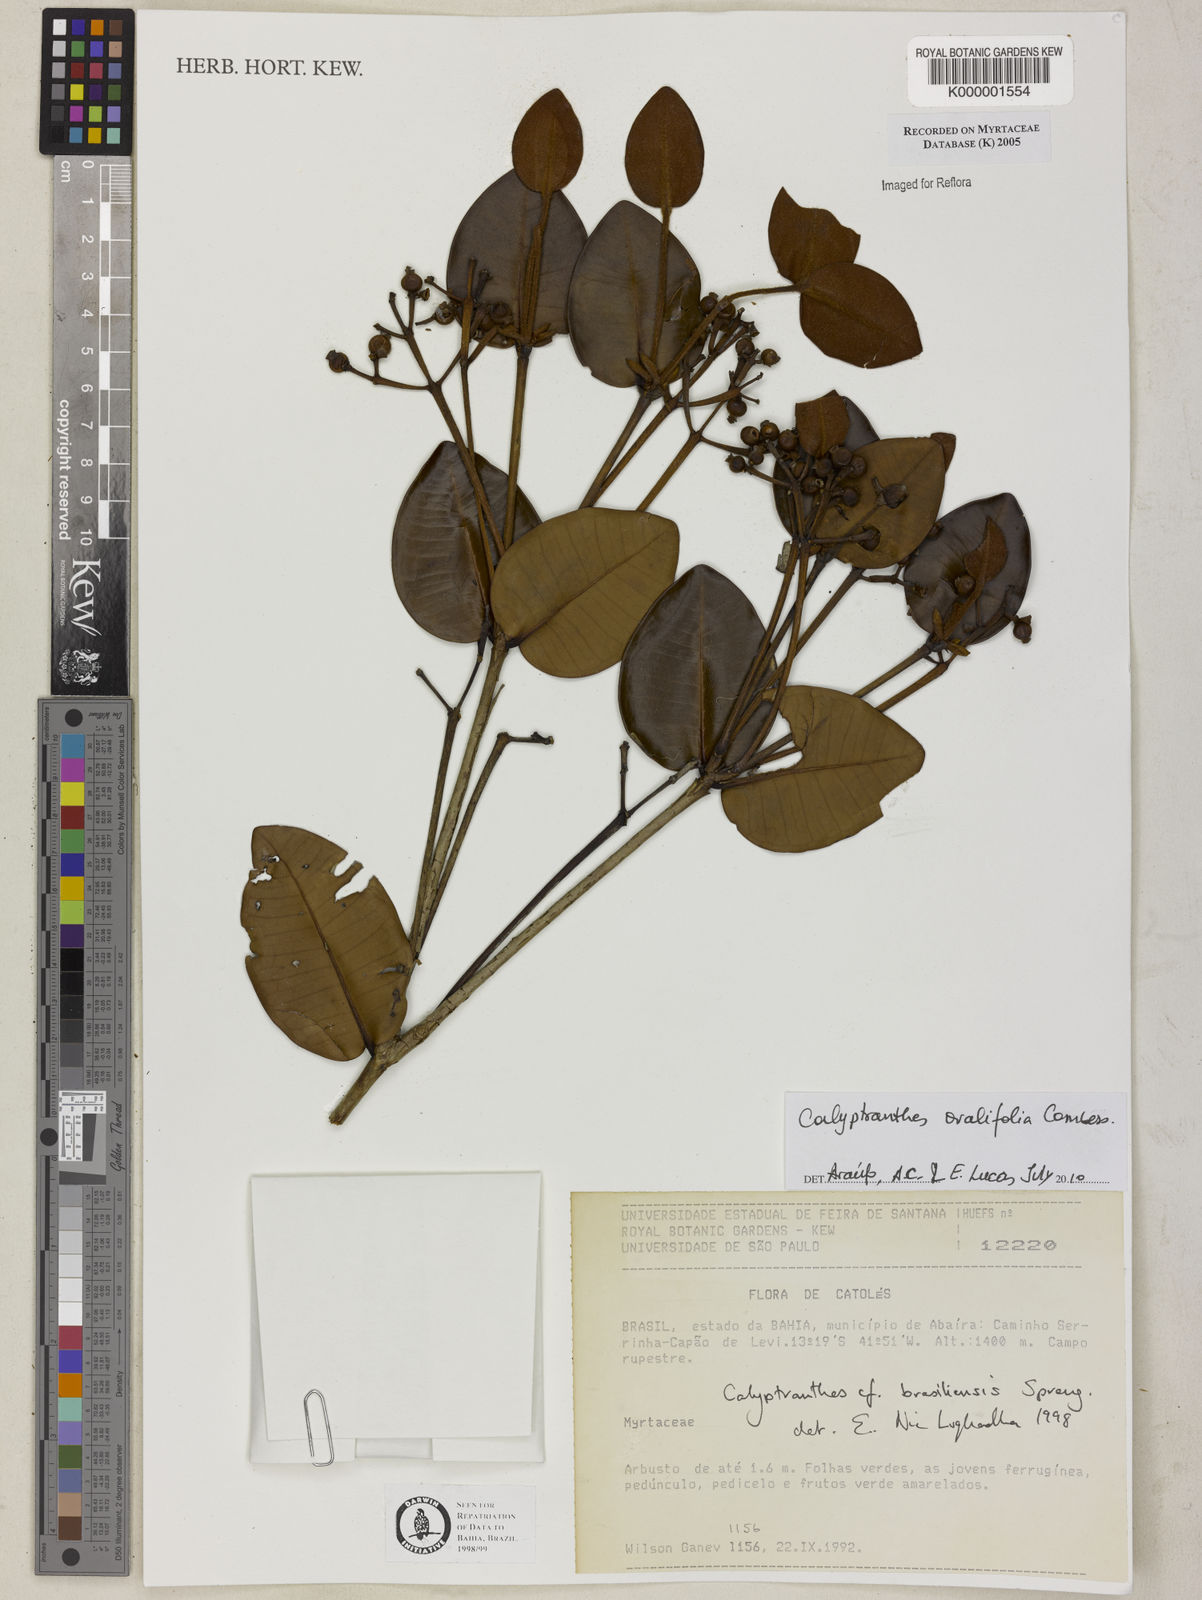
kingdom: Plantae
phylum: Tracheophyta
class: Magnoliopsida
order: Myrtales
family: Myrtaceae
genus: Myrcia
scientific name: Myrcia neobrasiliensis
